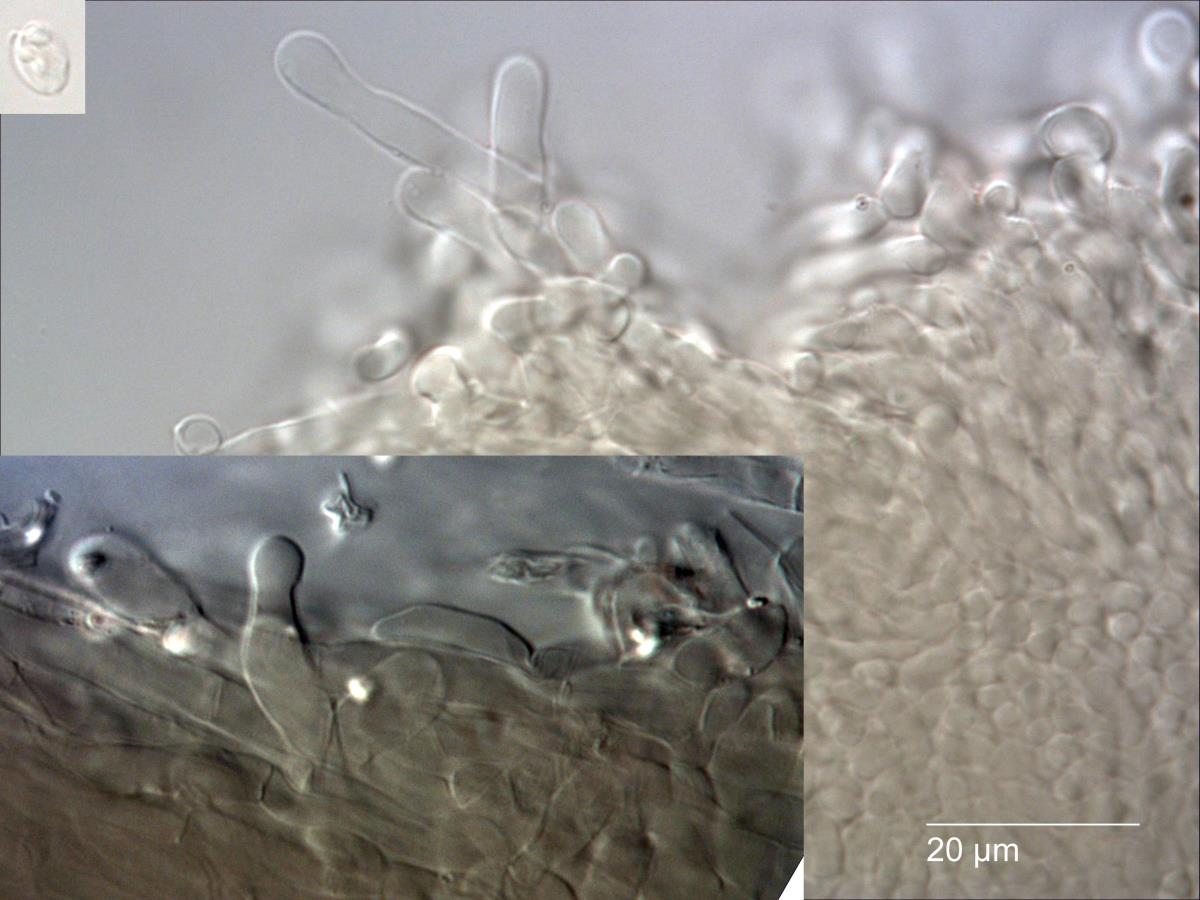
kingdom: Fungi
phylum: Basidiomycota
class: Agaricomycetes
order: Agaricales
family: Marasmiaceae
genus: Gerronema
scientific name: Gerronema
